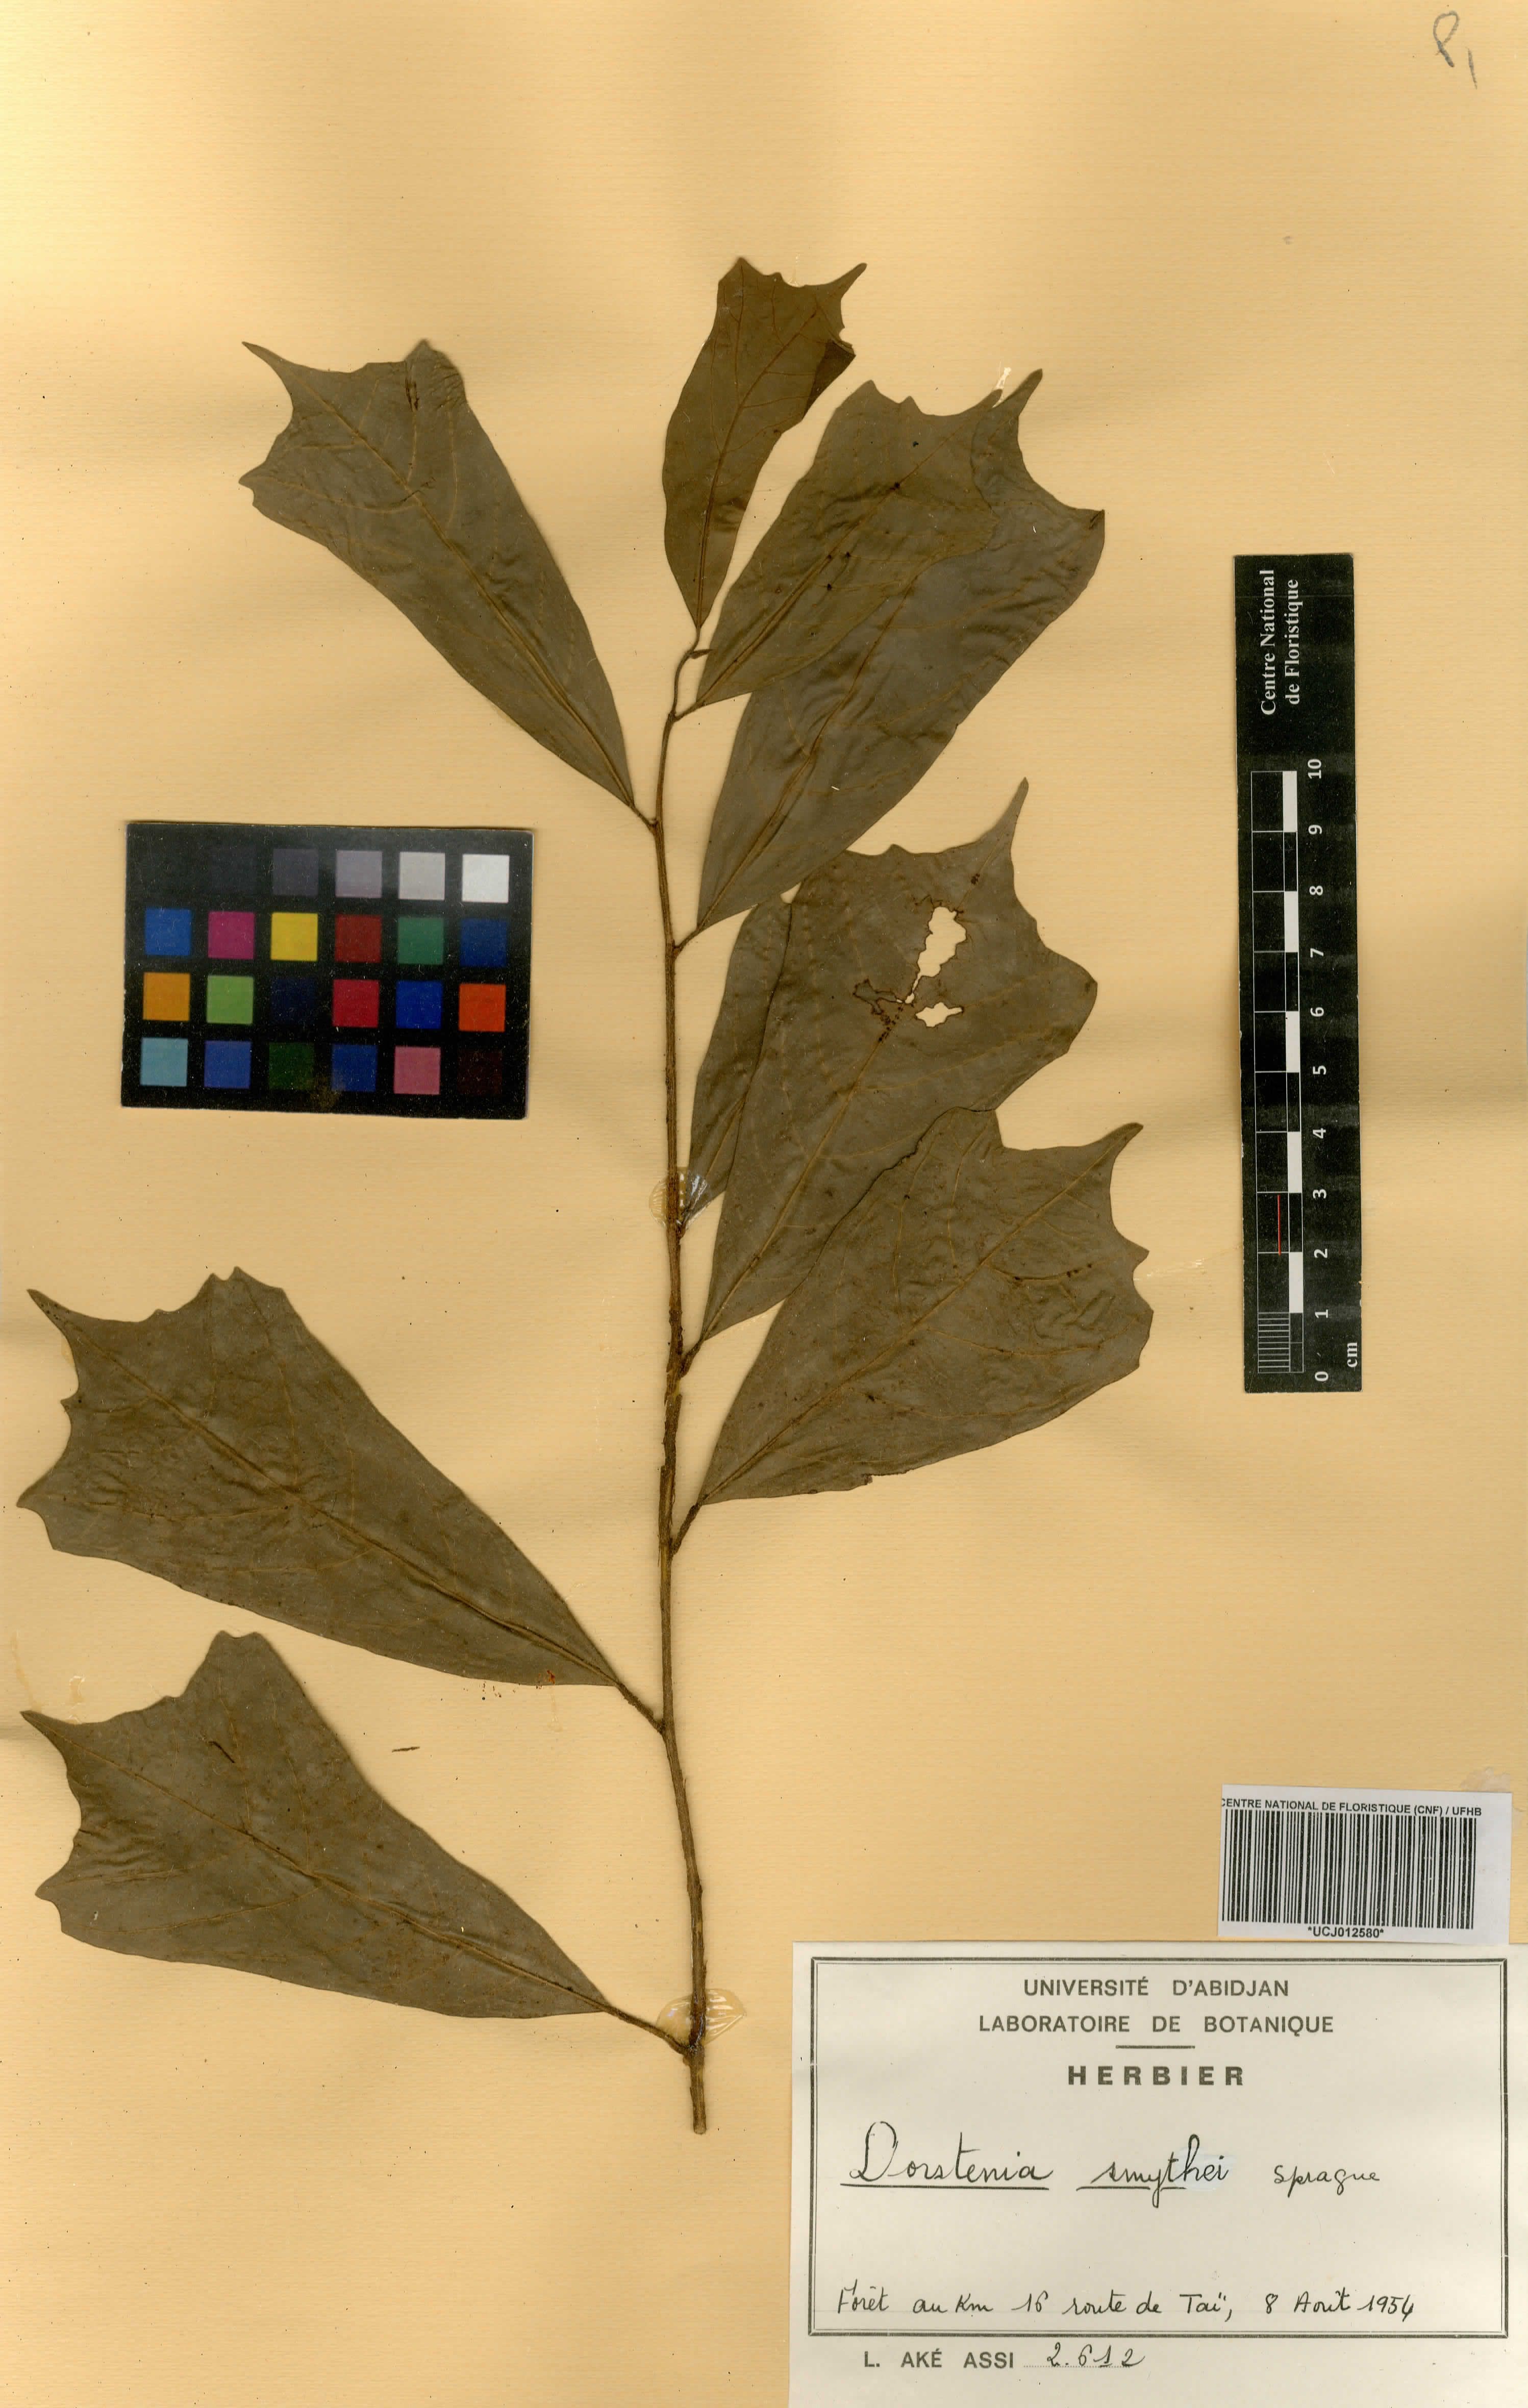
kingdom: Plantae
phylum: Tracheophyta
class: Magnoliopsida
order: Rosales
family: Moraceae
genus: Hijmania
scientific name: Hijmania turbinata
